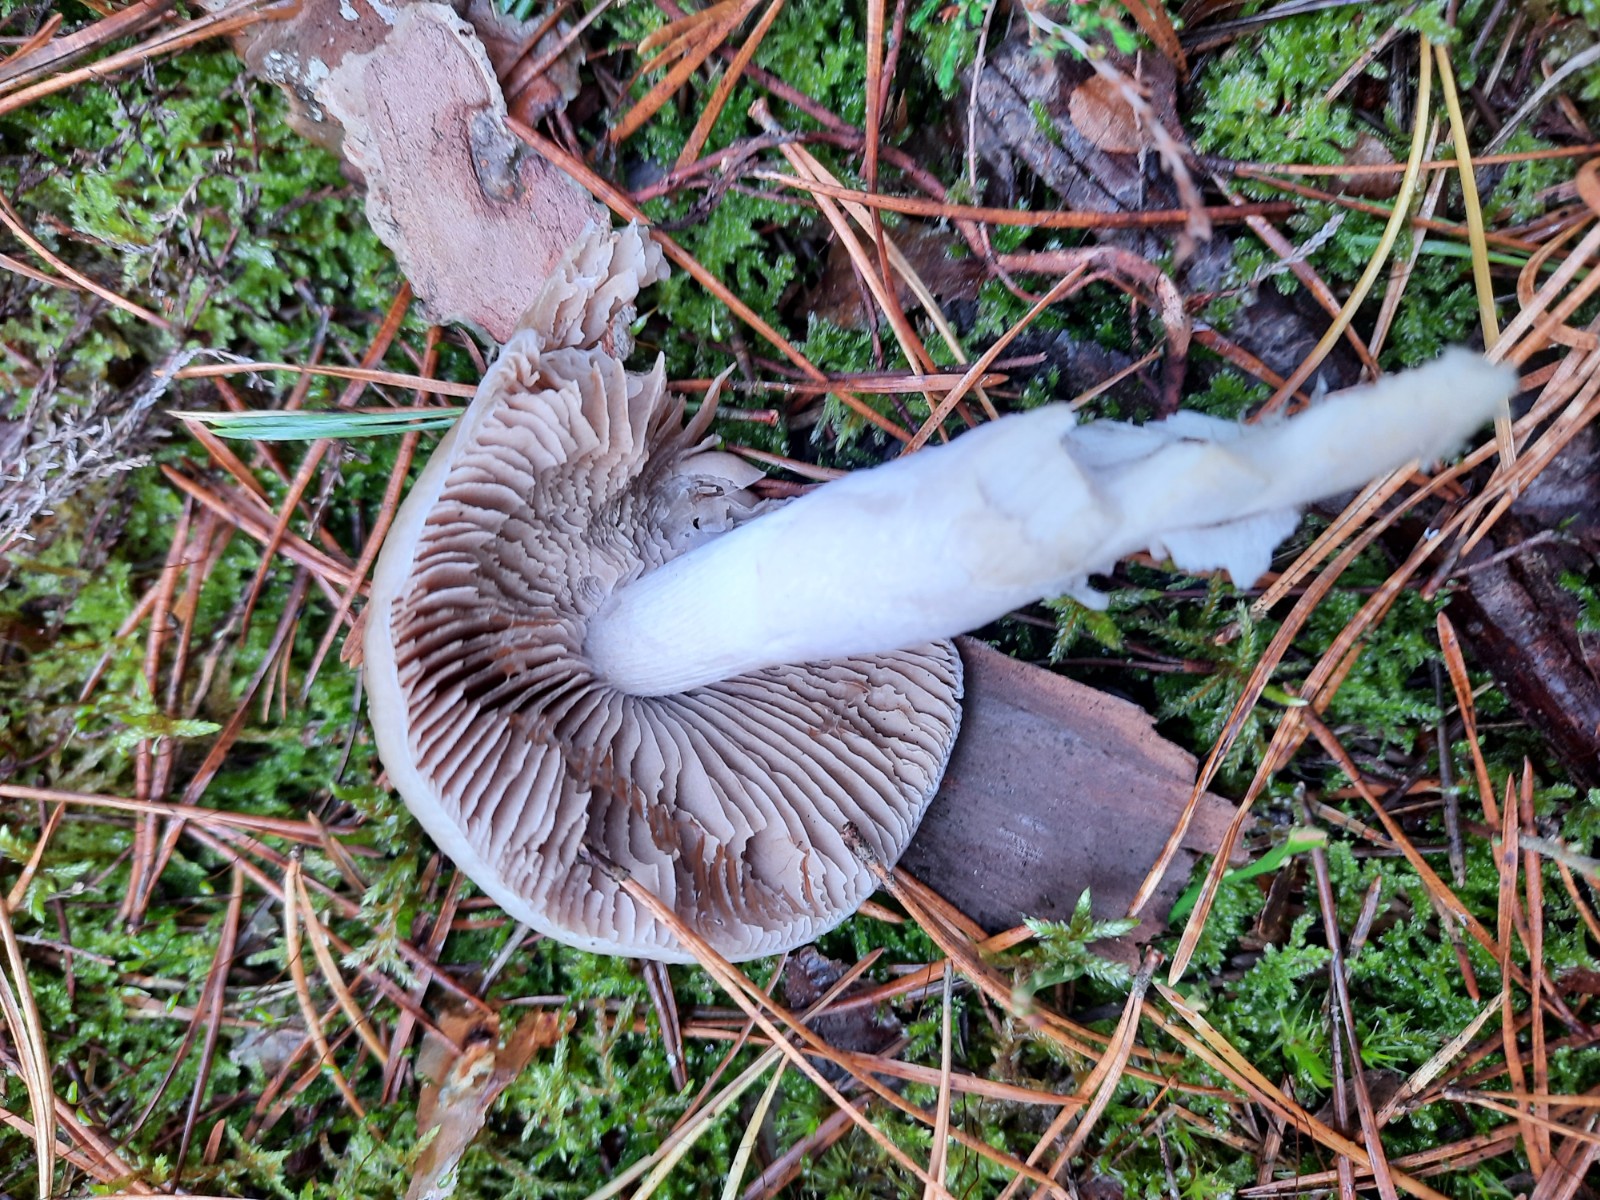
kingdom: Fungi
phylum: Basidiomycota
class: Agaricomycetes
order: Agaricales
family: Cortinariaceae
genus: Cortinarius
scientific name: Cortinarius mucifluus
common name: rynket slørhat
